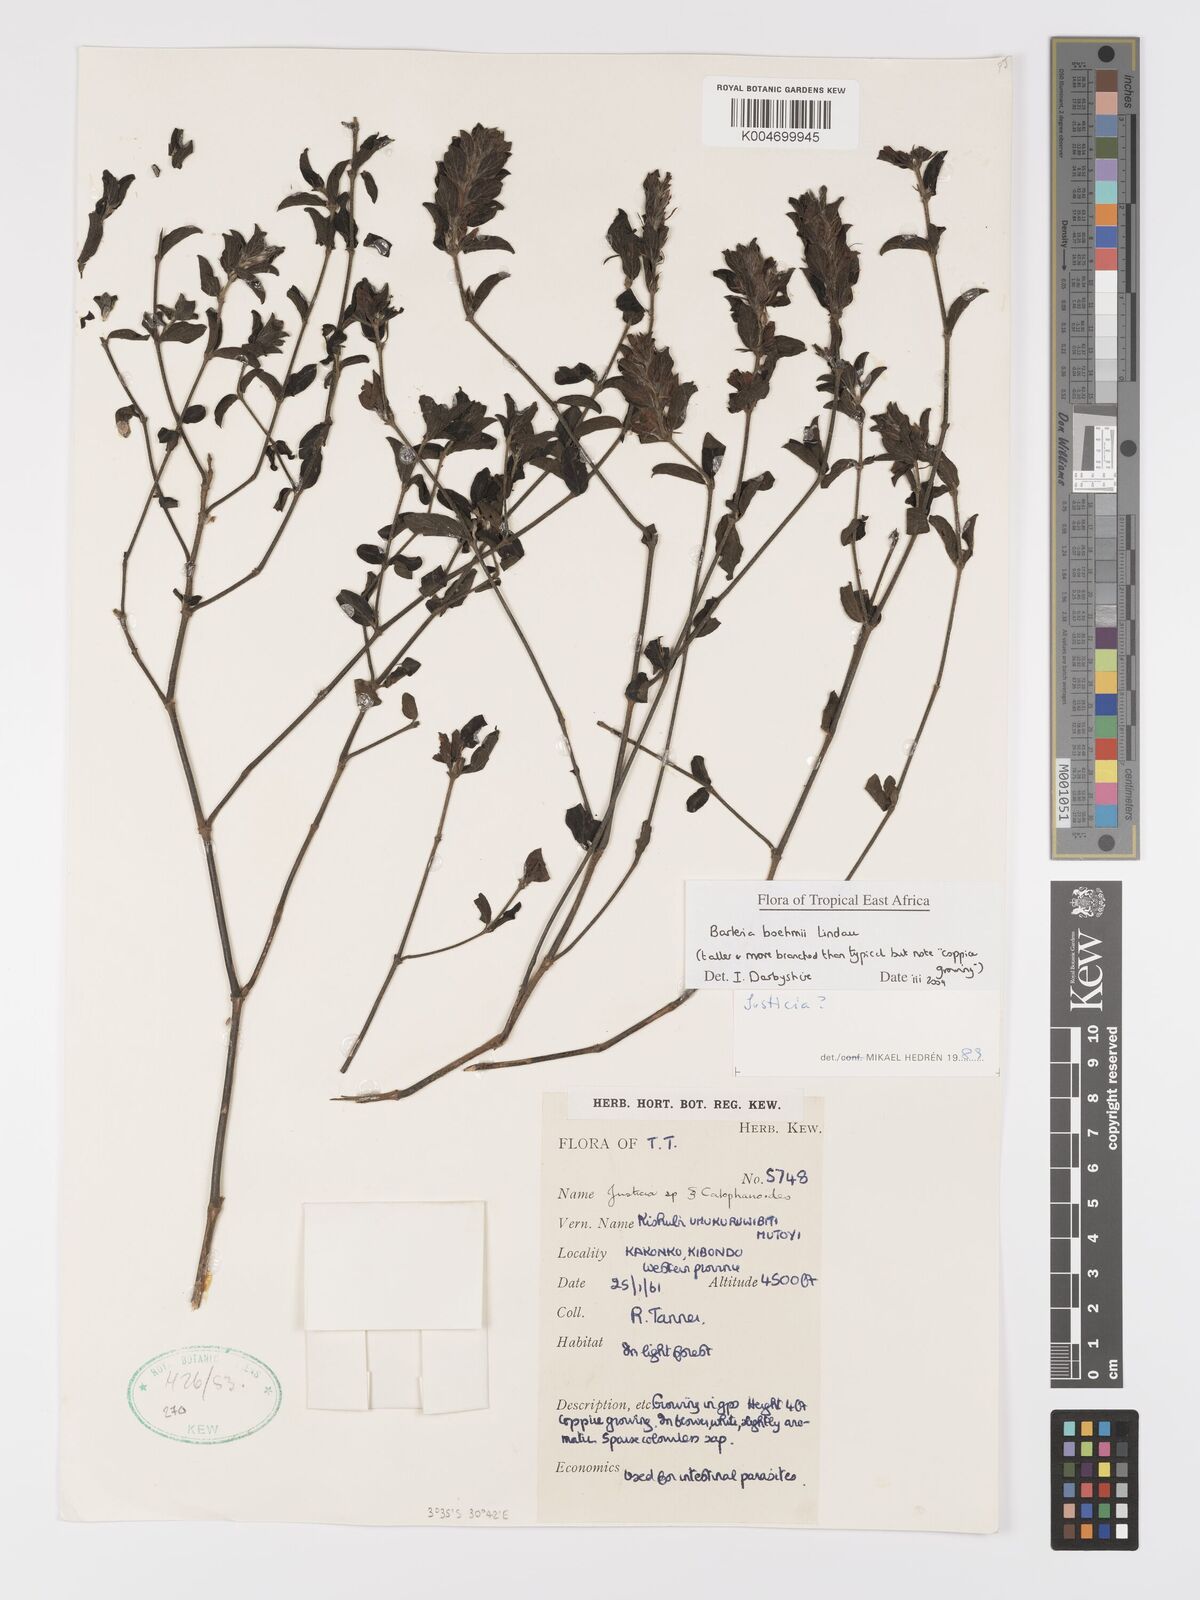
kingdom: Plantae
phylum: Tracheophyta
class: Magnoliopsida
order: Lamiales
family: Acanthaceae
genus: Barleria
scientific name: Barleria boehmii
